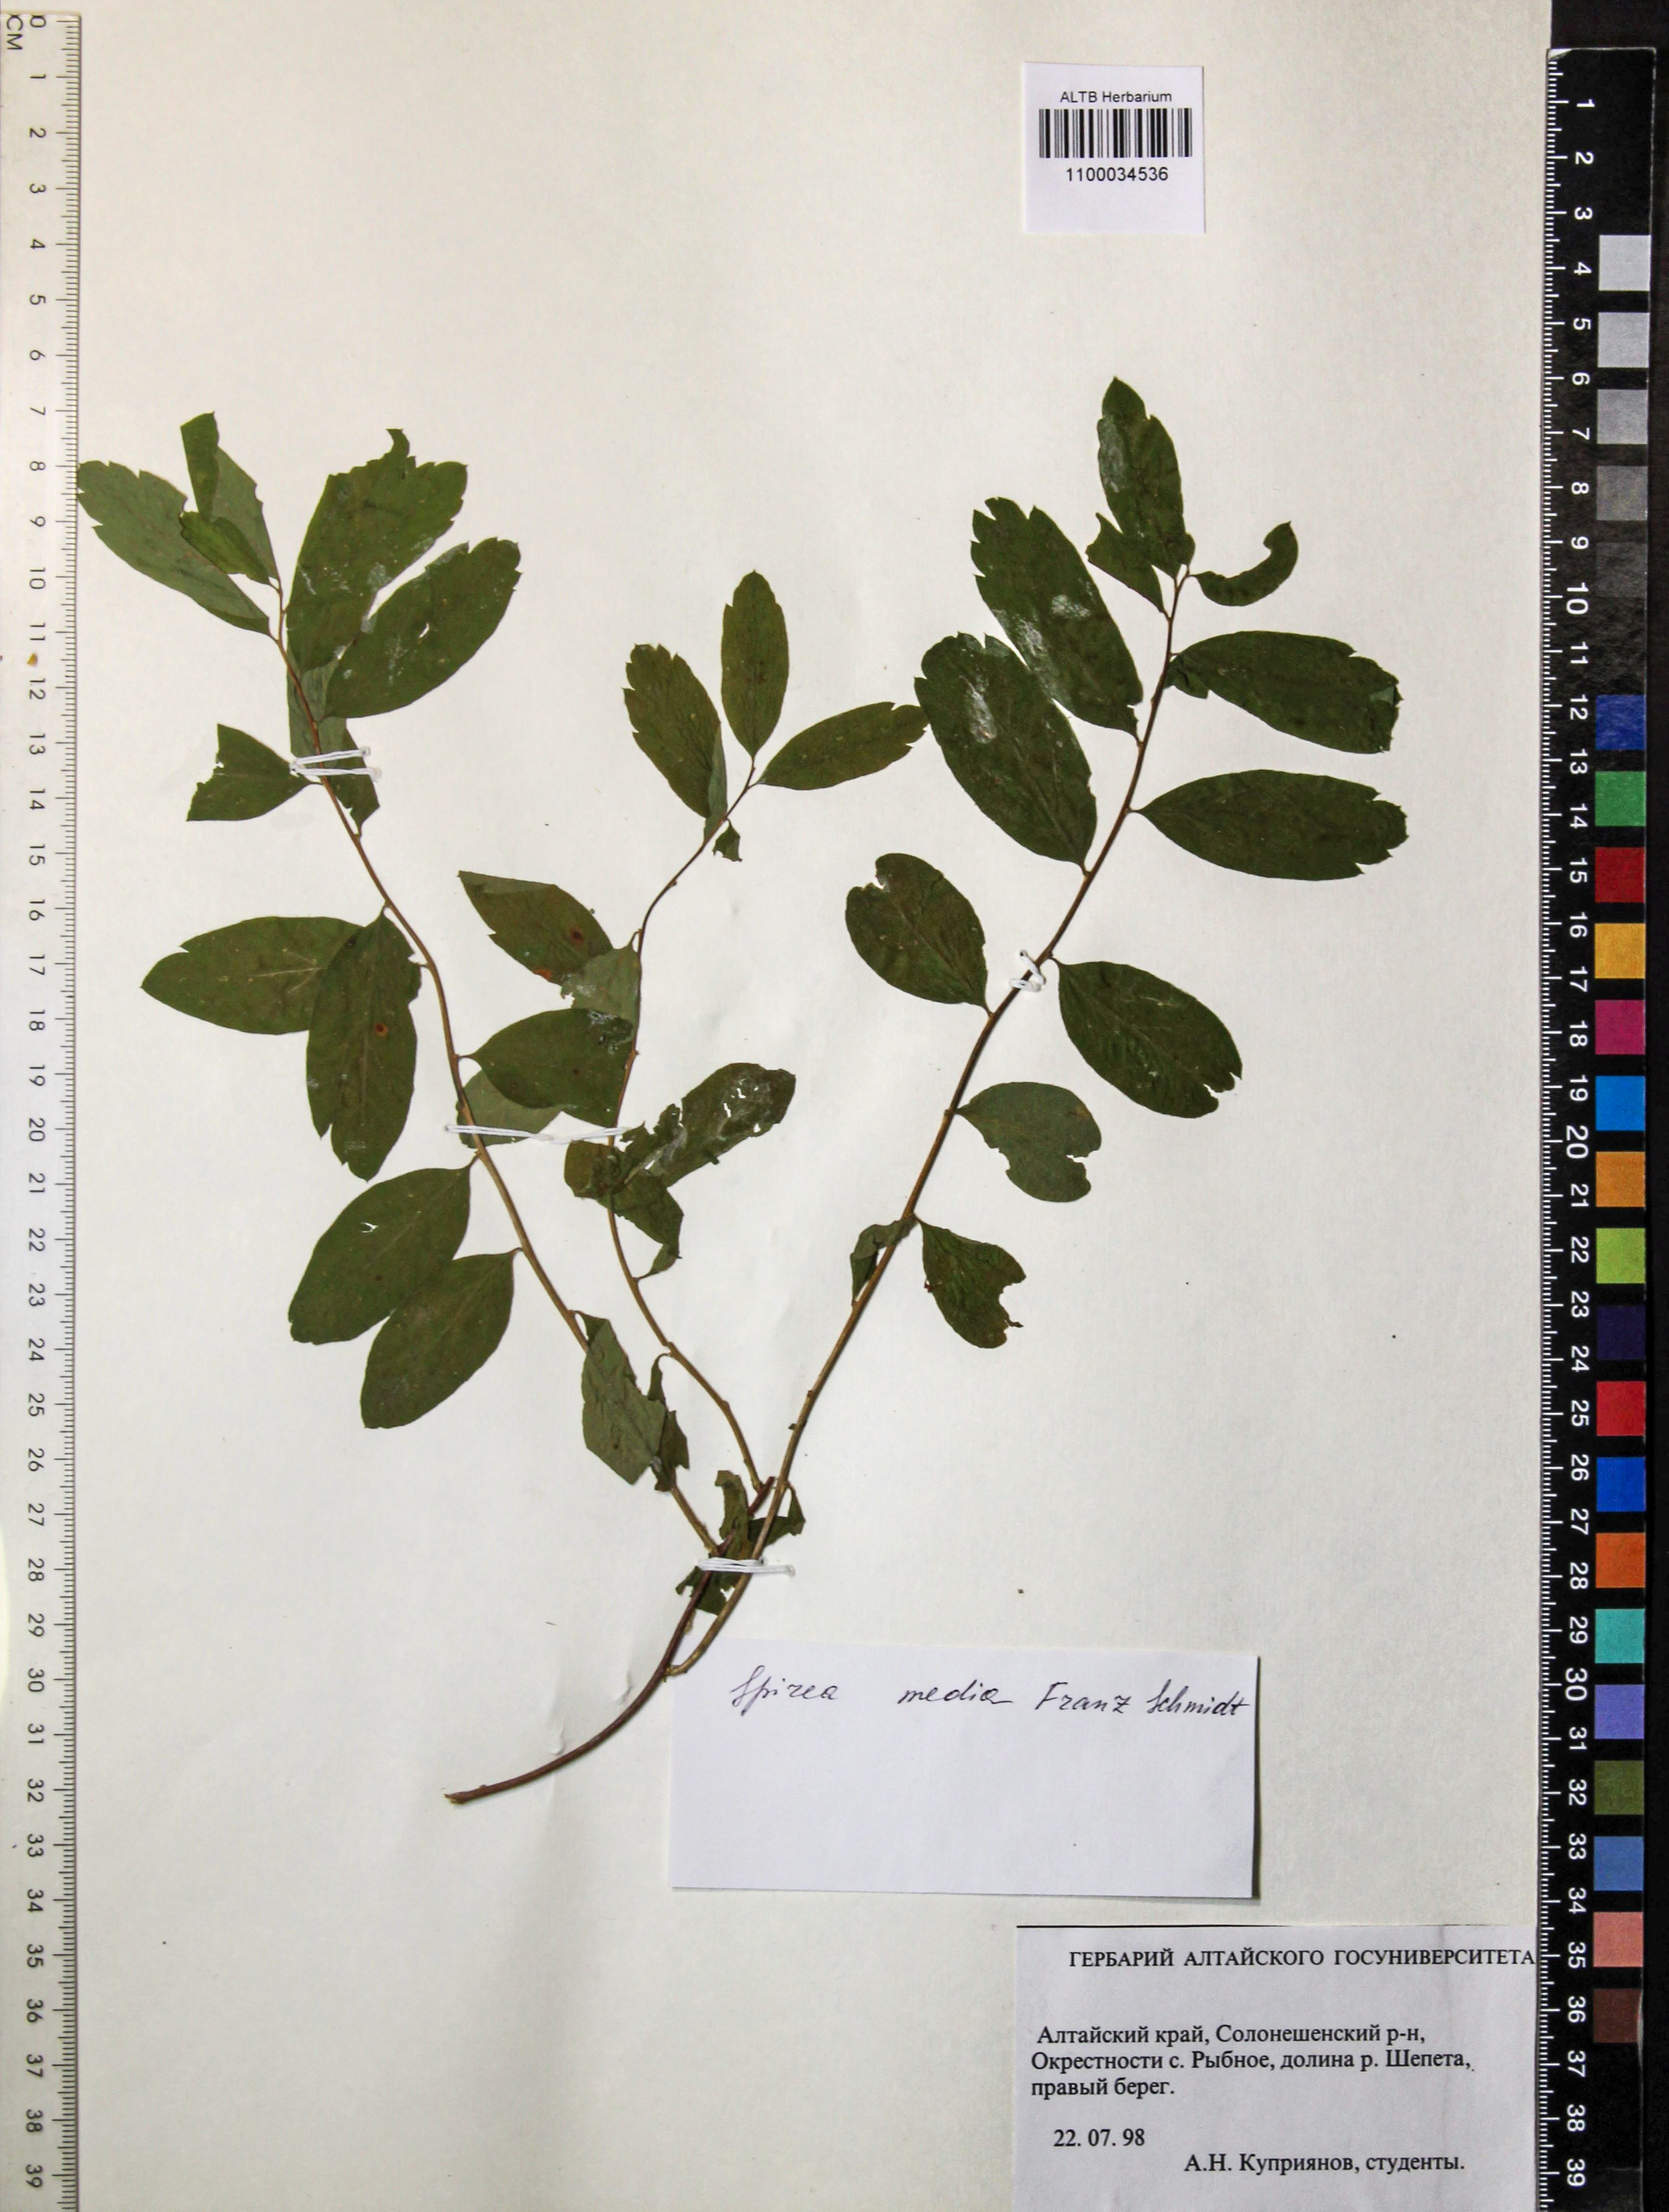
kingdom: Plantae
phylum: Tracheophyta
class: Magnoliopsida
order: Rosales
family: Rosaceae
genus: Spiraea
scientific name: Spiraea media
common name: Russian spiraea
